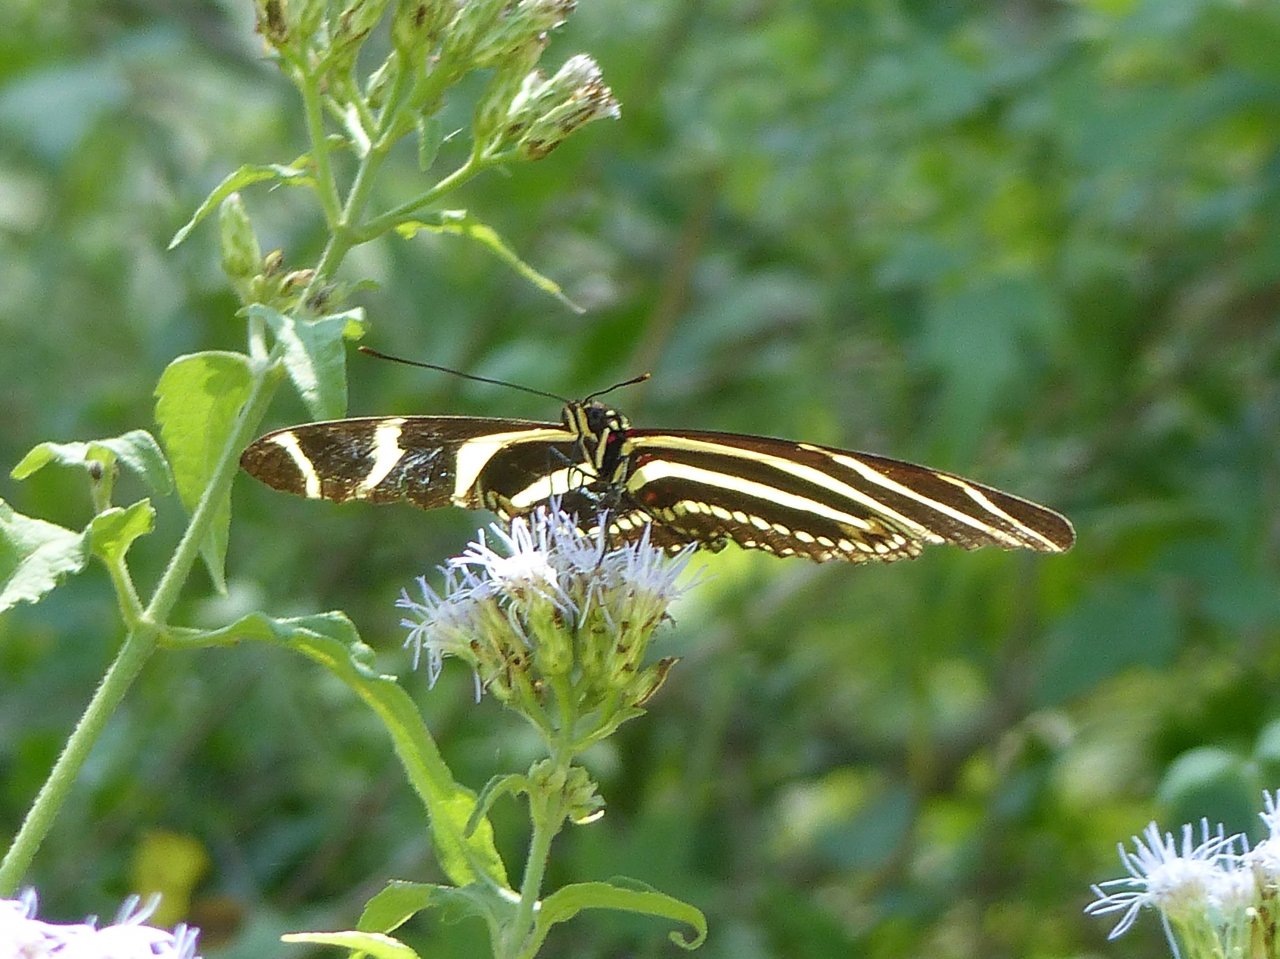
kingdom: Animalia
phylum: Arthropoda
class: Insecta
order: Lepidoptera
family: Nymphalidae
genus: Heliconius
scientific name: Heliconius charithonia
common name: Zebra Longwing
